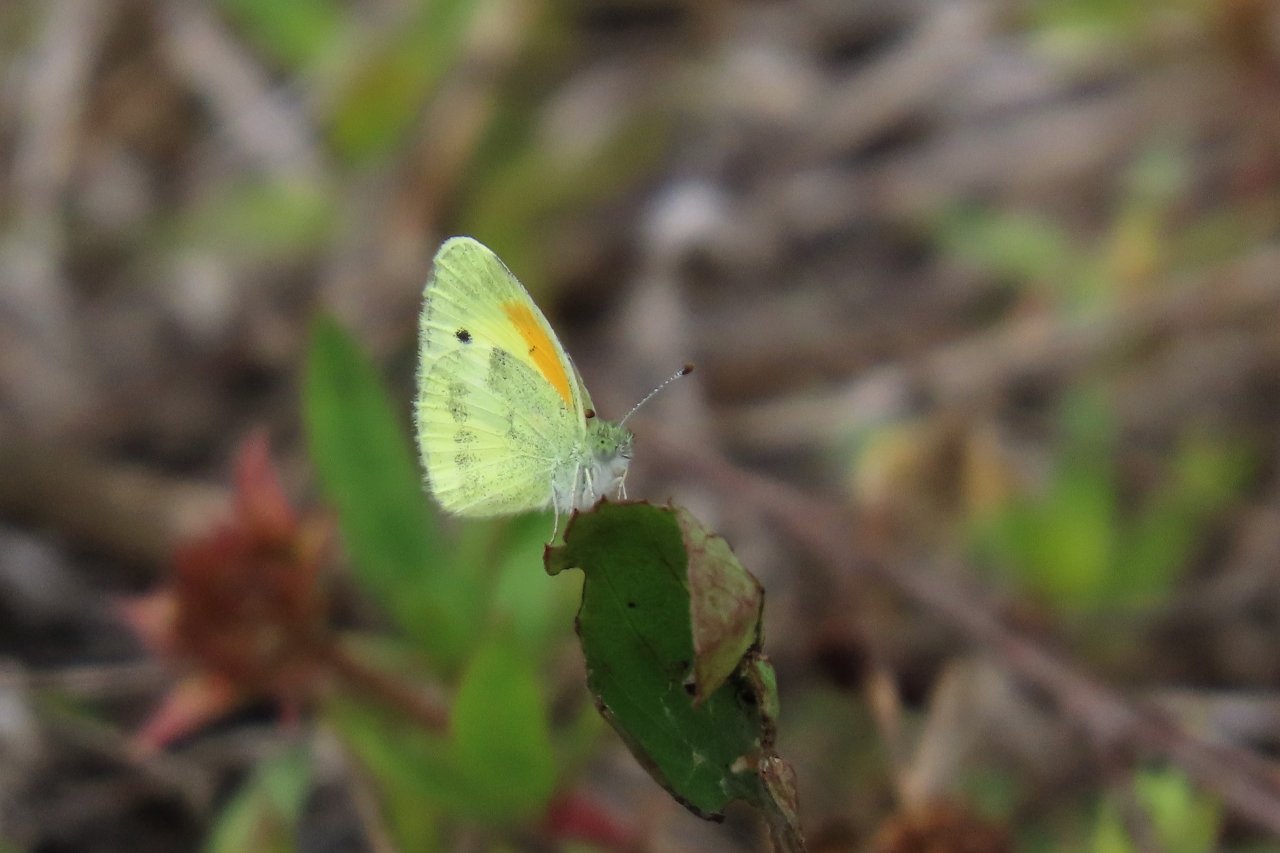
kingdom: Animalia
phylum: Arthropoda
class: Insecta
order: Lepidoptera
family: Pieridae
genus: Nathalis
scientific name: Nathalis iole
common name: Dainty Sulphur
